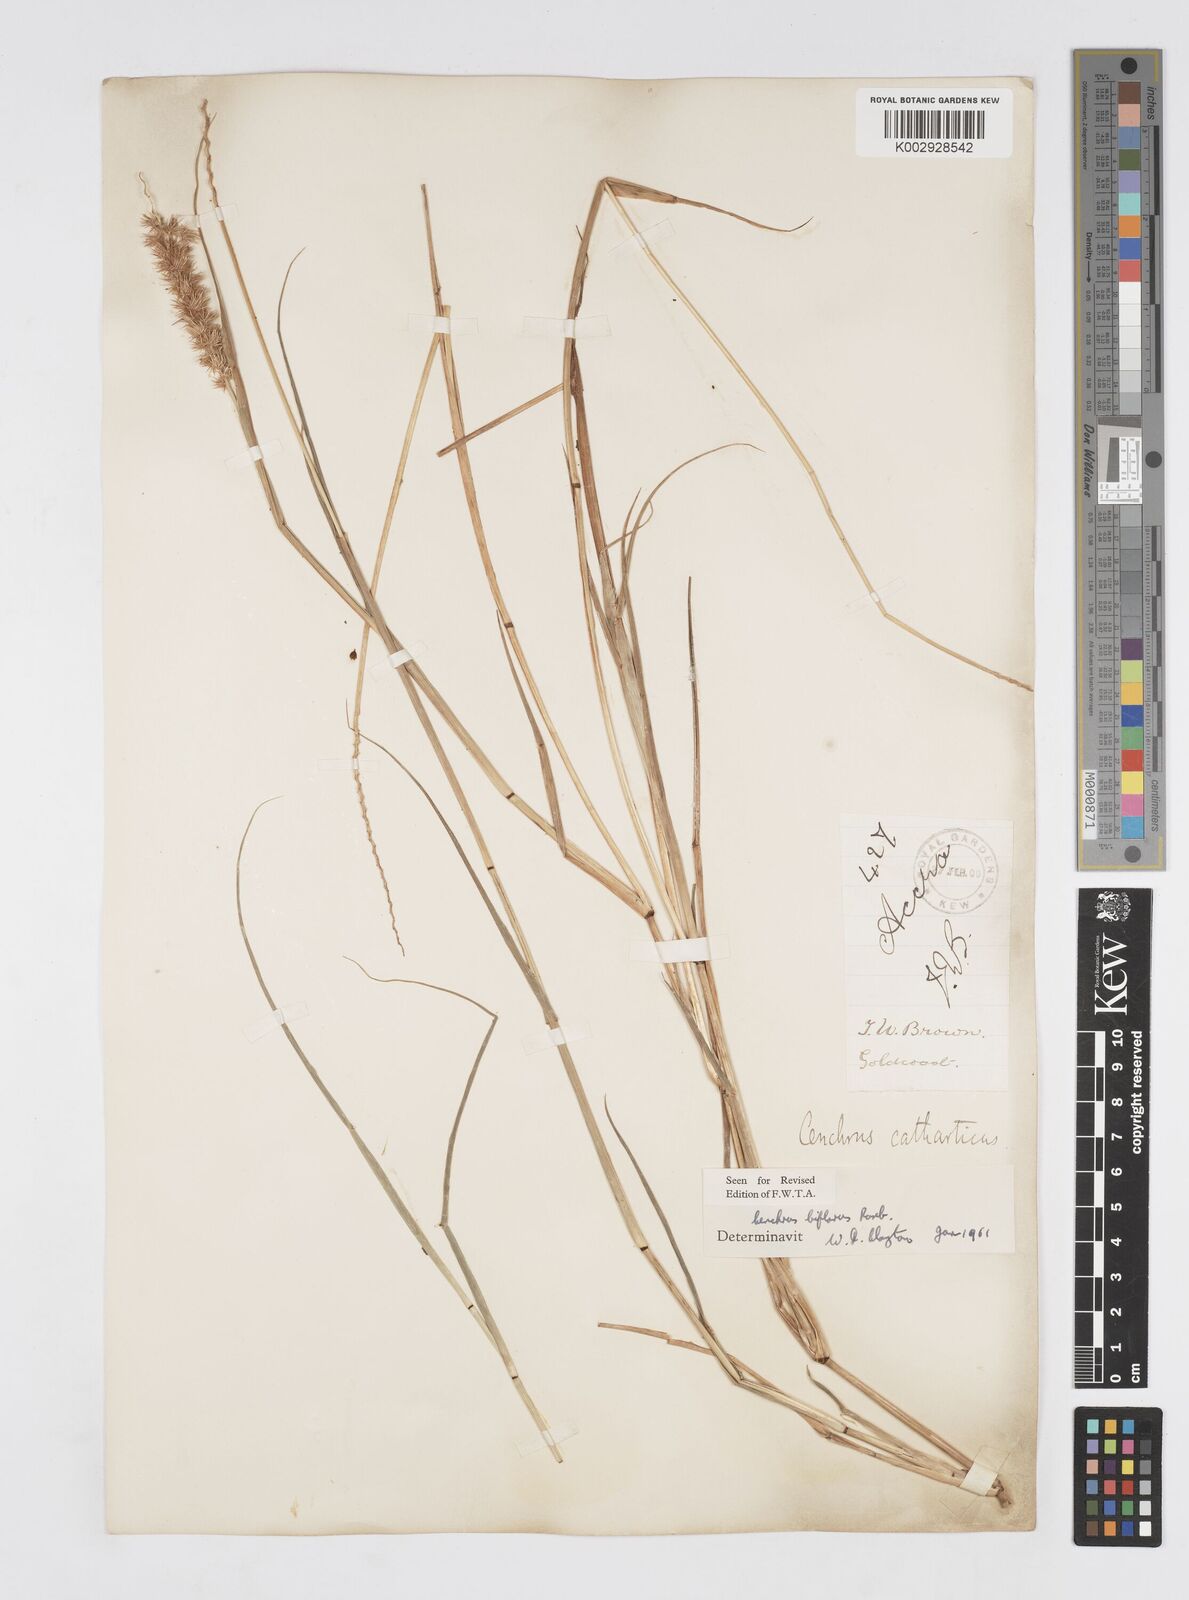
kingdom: Plantae
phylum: Tracheophyta
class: Liliopsida
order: Poales
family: Poaceae
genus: Cenchrus
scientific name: Cenchrus biflorus
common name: Indian sandbur
